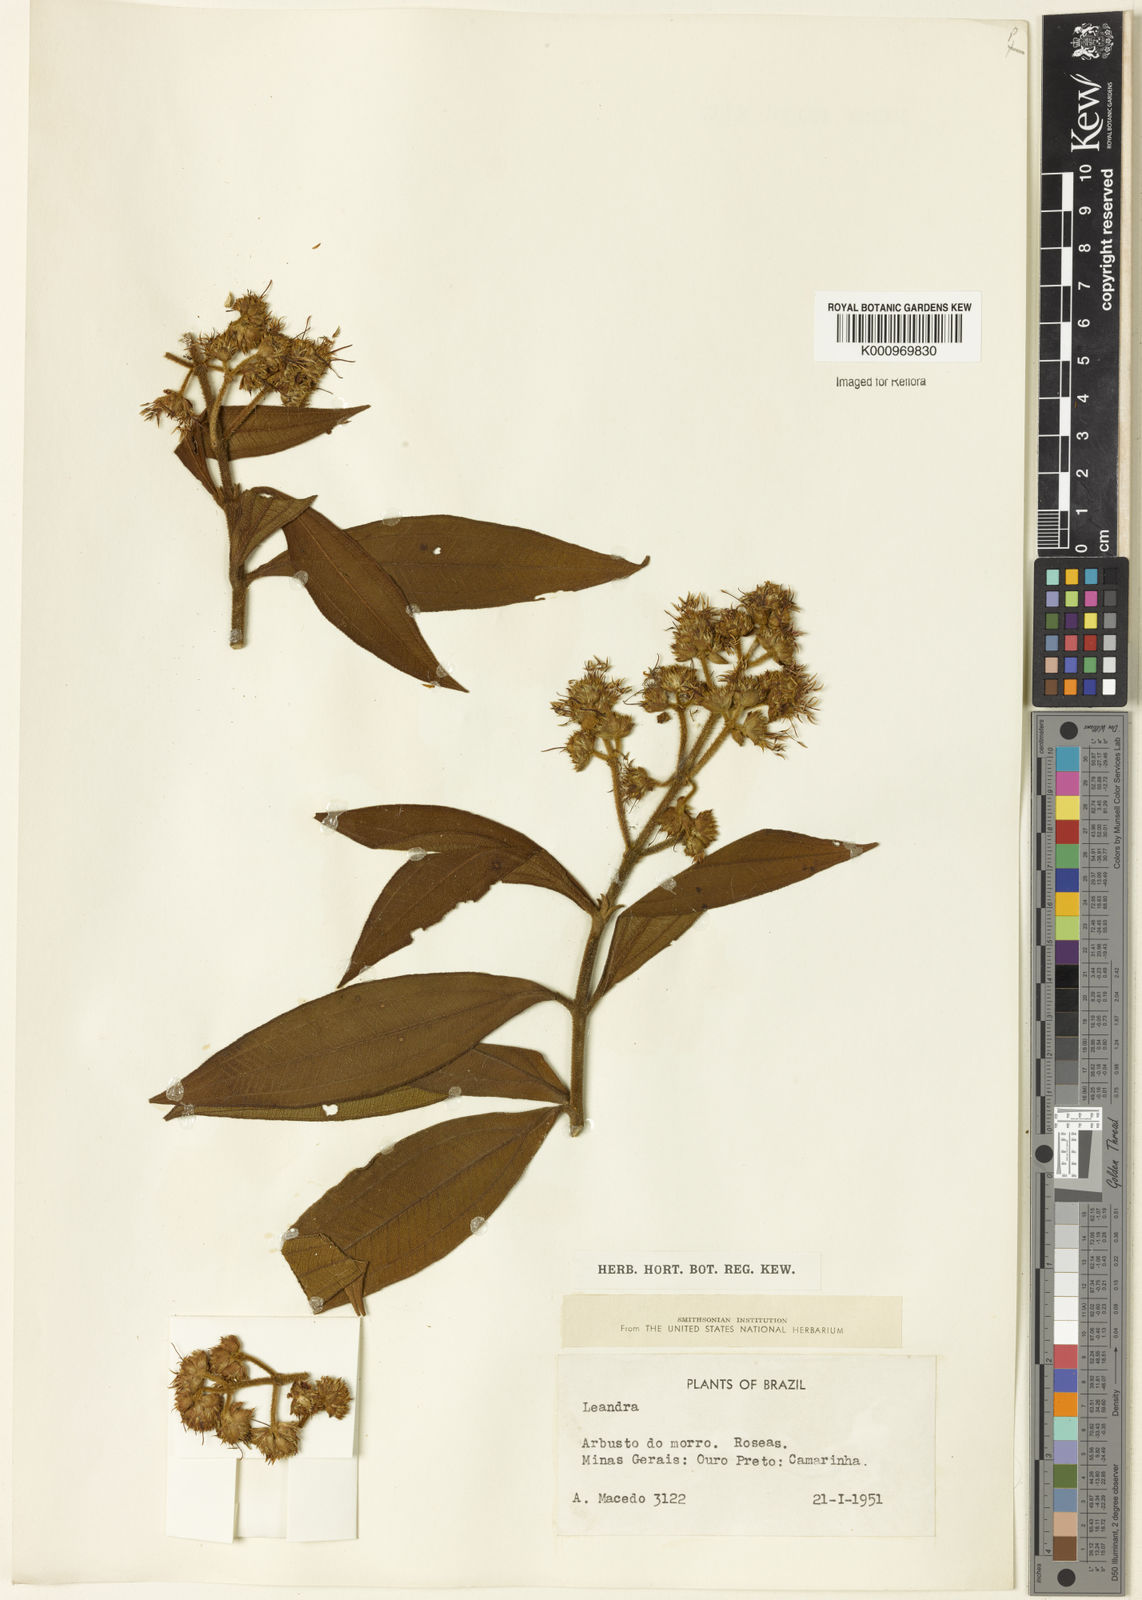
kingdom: Plantae
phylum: Tracheophyta
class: Magnoliopsida
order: Myrtales
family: Melastomataceae
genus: Miconia
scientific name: Miconia
